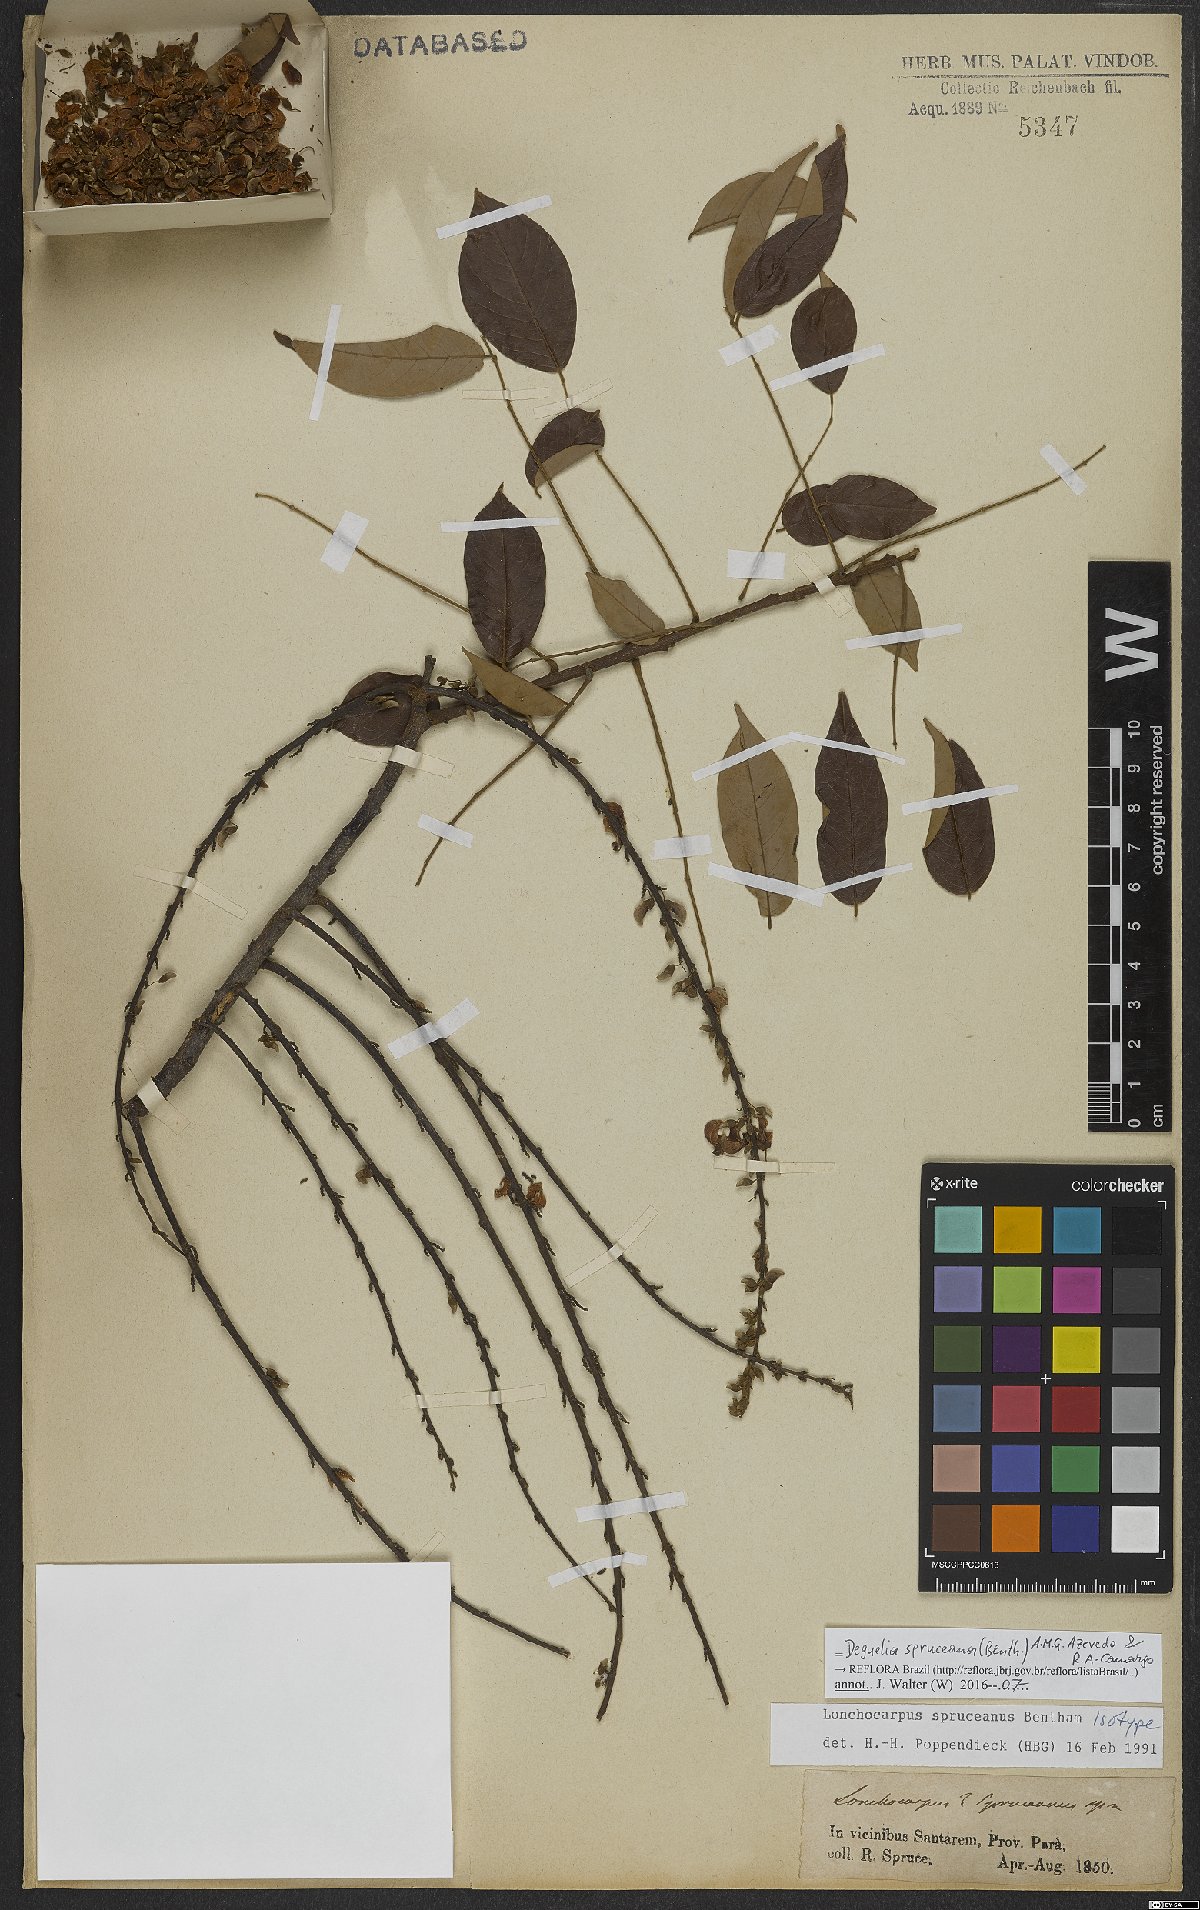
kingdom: Plantae
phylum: Tracheophyta
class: Magnoliopsida
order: Fabales
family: Fabaceae
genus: Deguelia
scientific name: Deguelia spruceana
